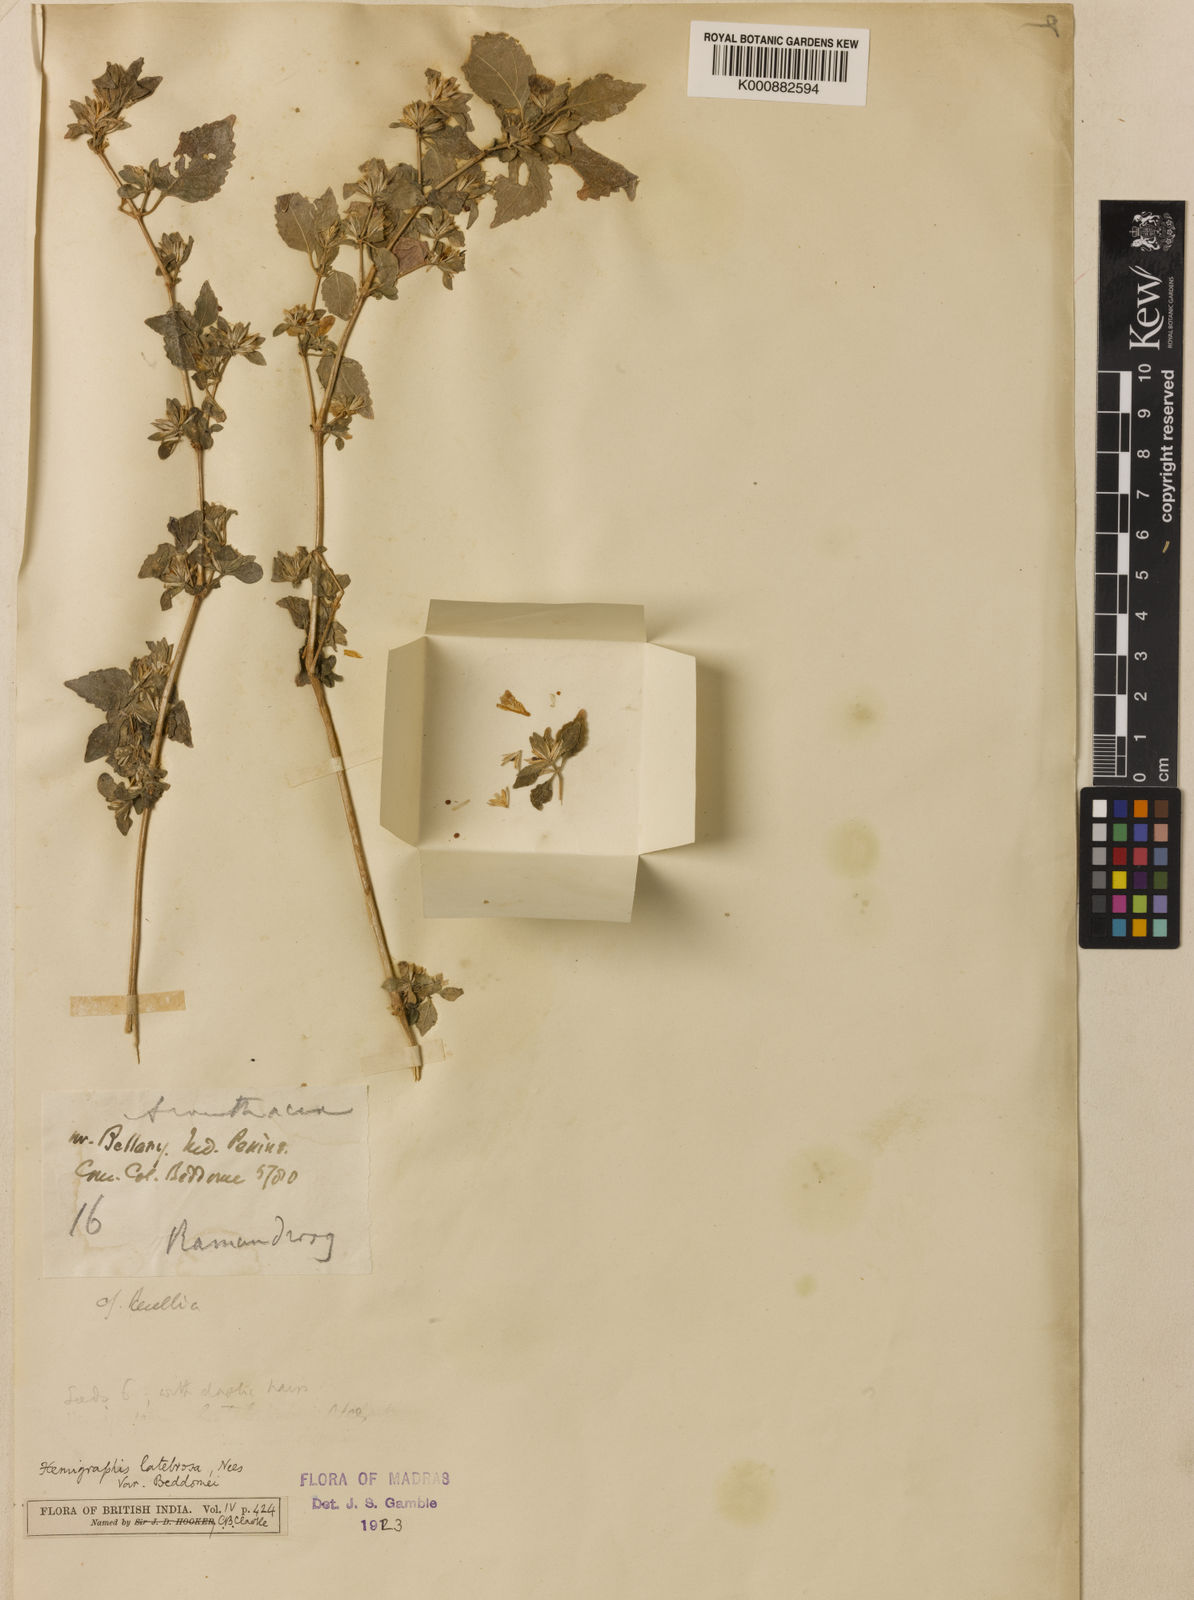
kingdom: Plantae
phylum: Tracheophyta
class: Magnoliopsida
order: Lamiales
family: Acanthaceae
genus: Strobilanthes
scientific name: Strobilanthes pavala
